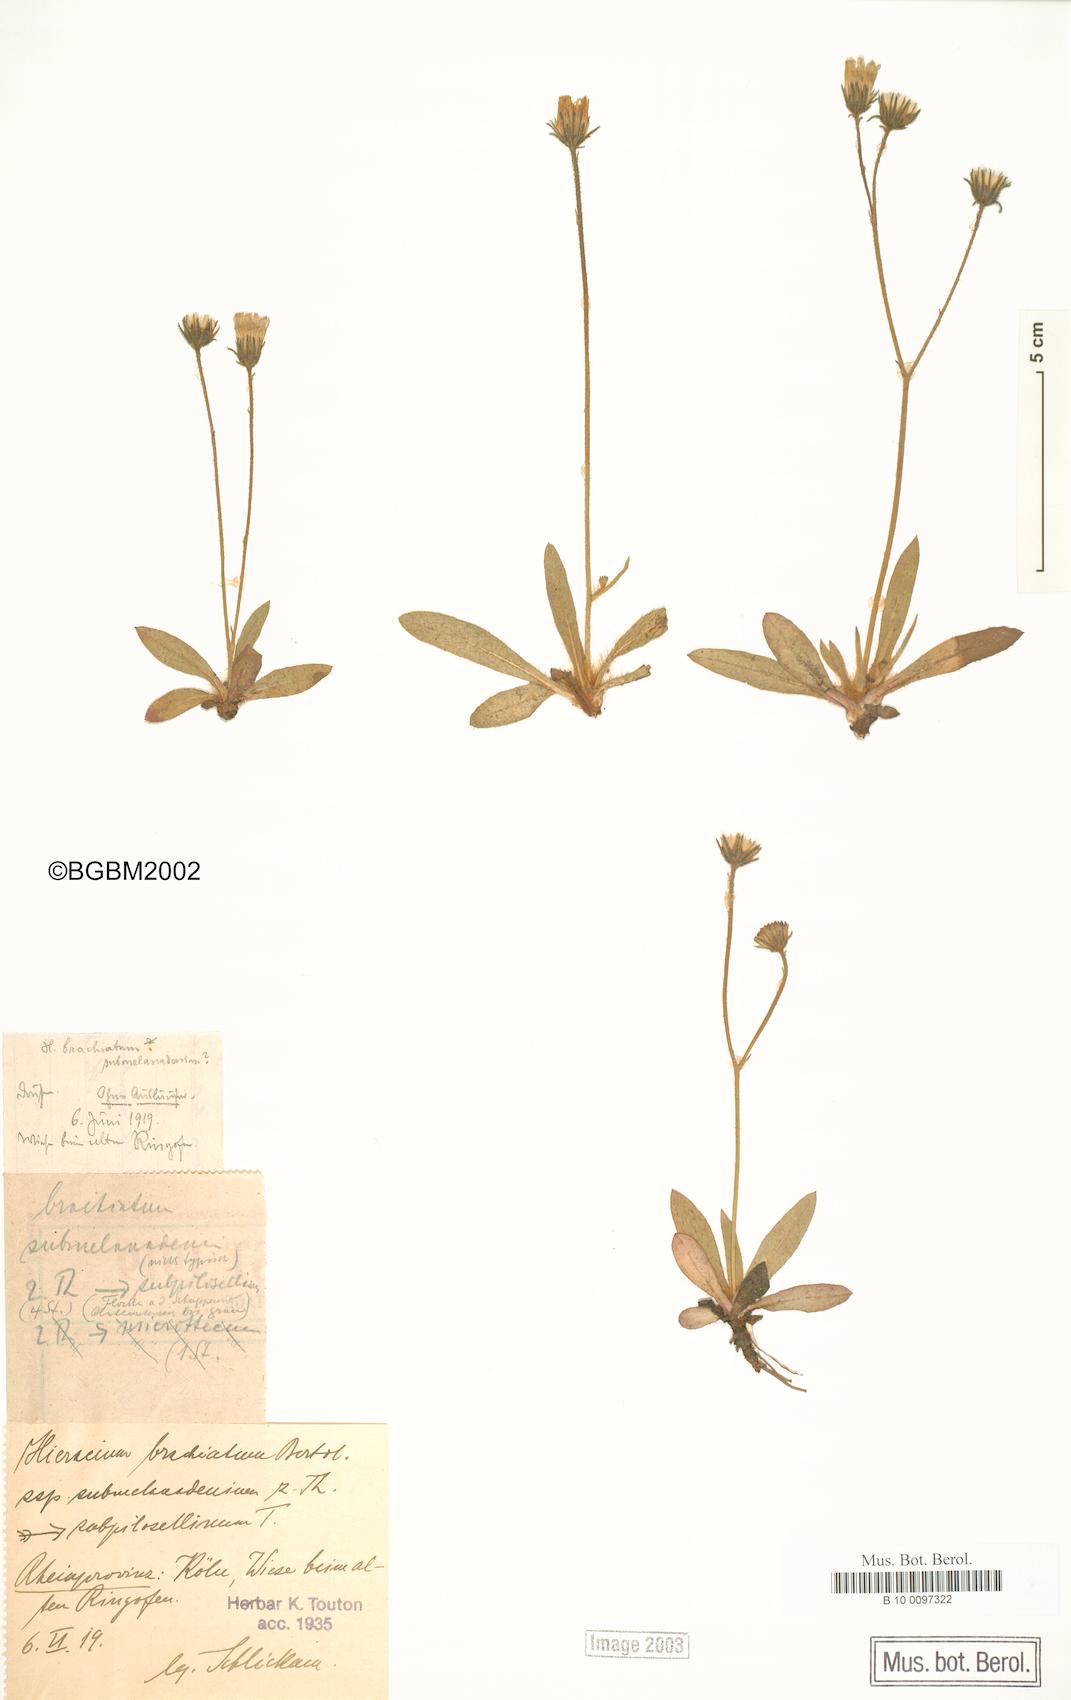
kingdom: Plantae
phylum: Tracheophyta
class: Magnoliopsida
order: Asterales
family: Asteraceae
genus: Pilosella
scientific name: Pilosella acutifolia
